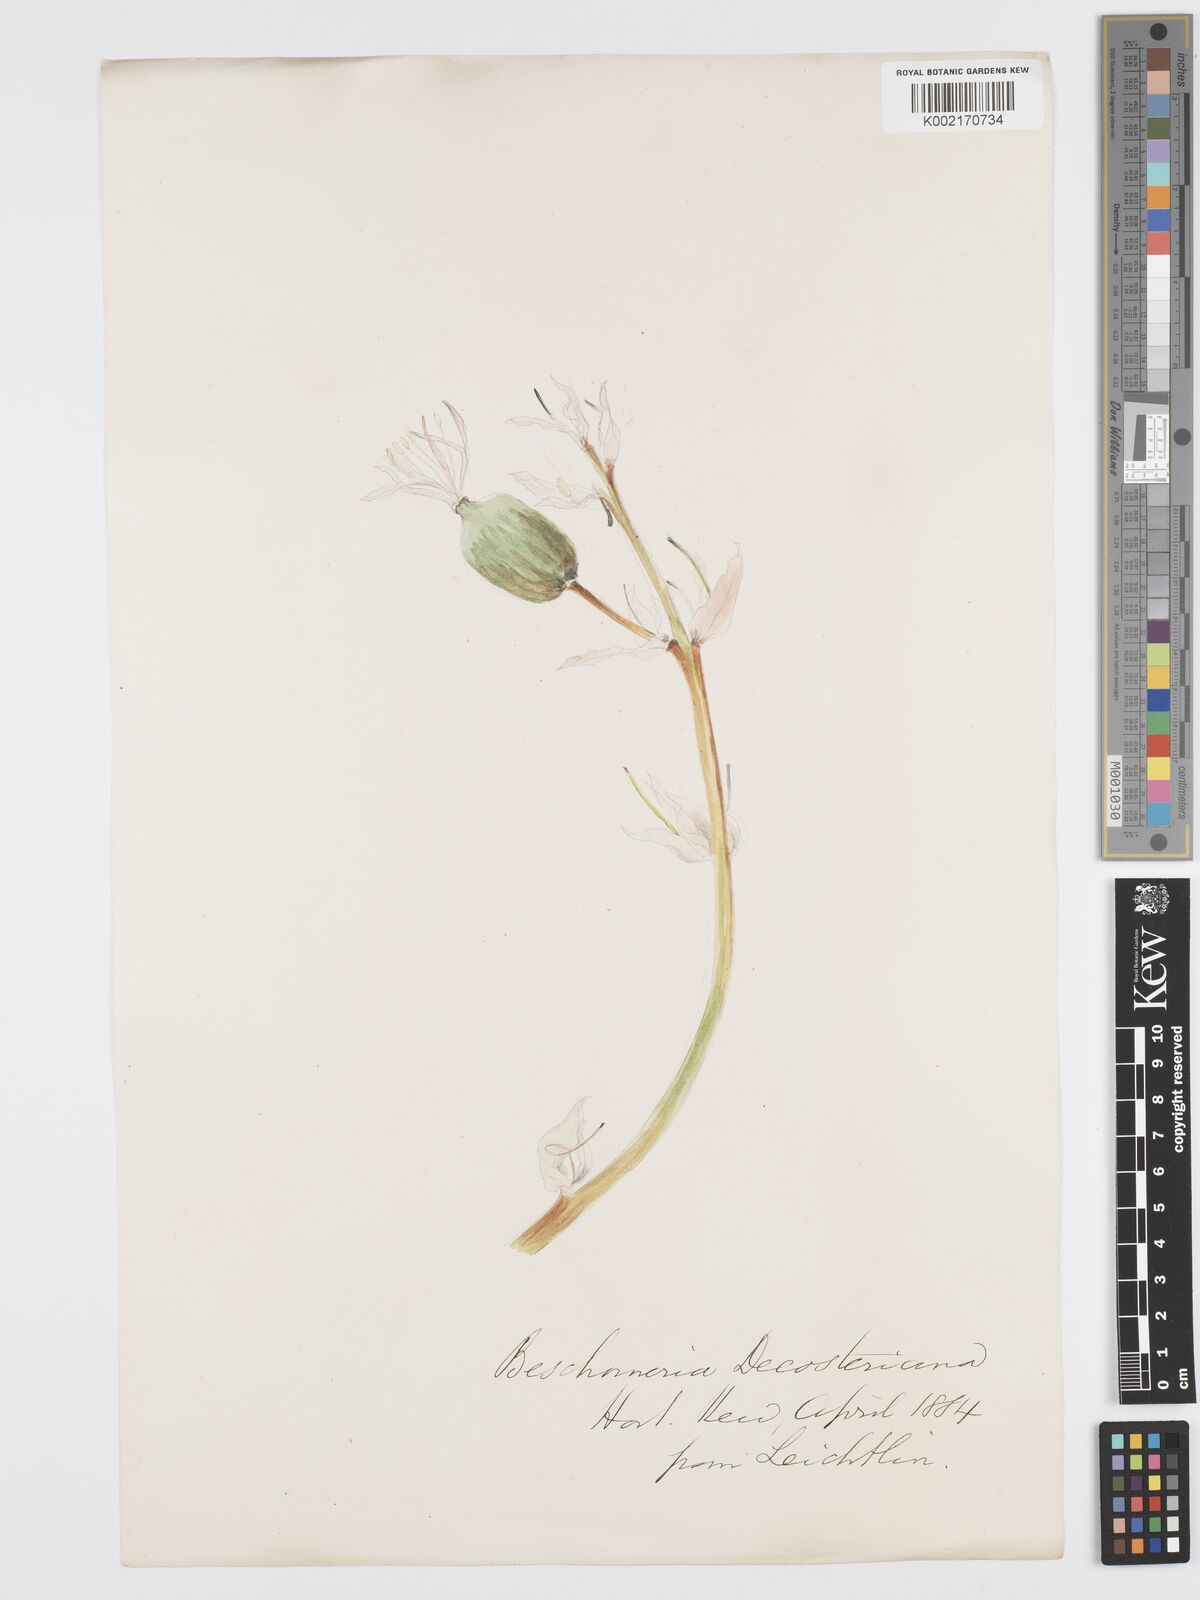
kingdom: Plantae
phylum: Tracheophyta
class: Liliopsida
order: Asparagales
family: Asparagaceae
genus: Beschorneria
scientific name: Beschorneria yuccoides
